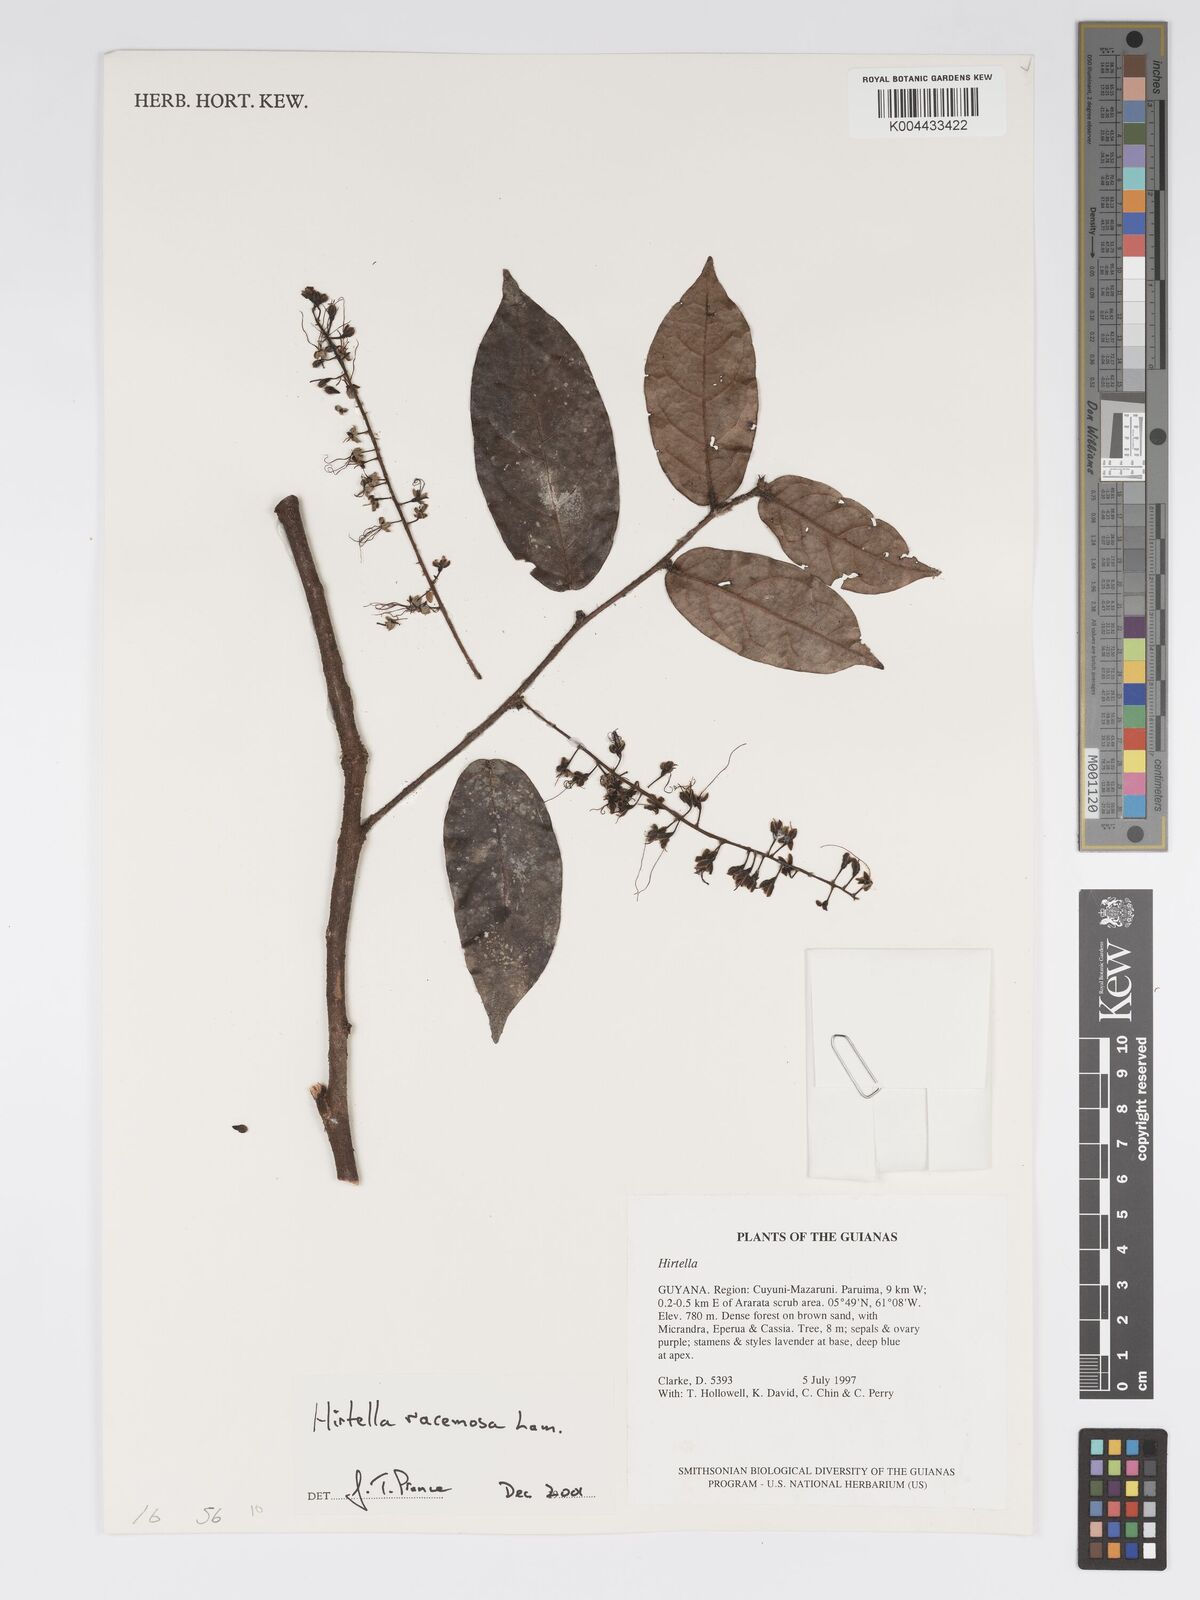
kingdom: Plantae
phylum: Tracheophyta
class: Magnoliopsida
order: Malpighiales
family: Chrysobalanaceae
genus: Hirtella
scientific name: Hirtella racemosa
